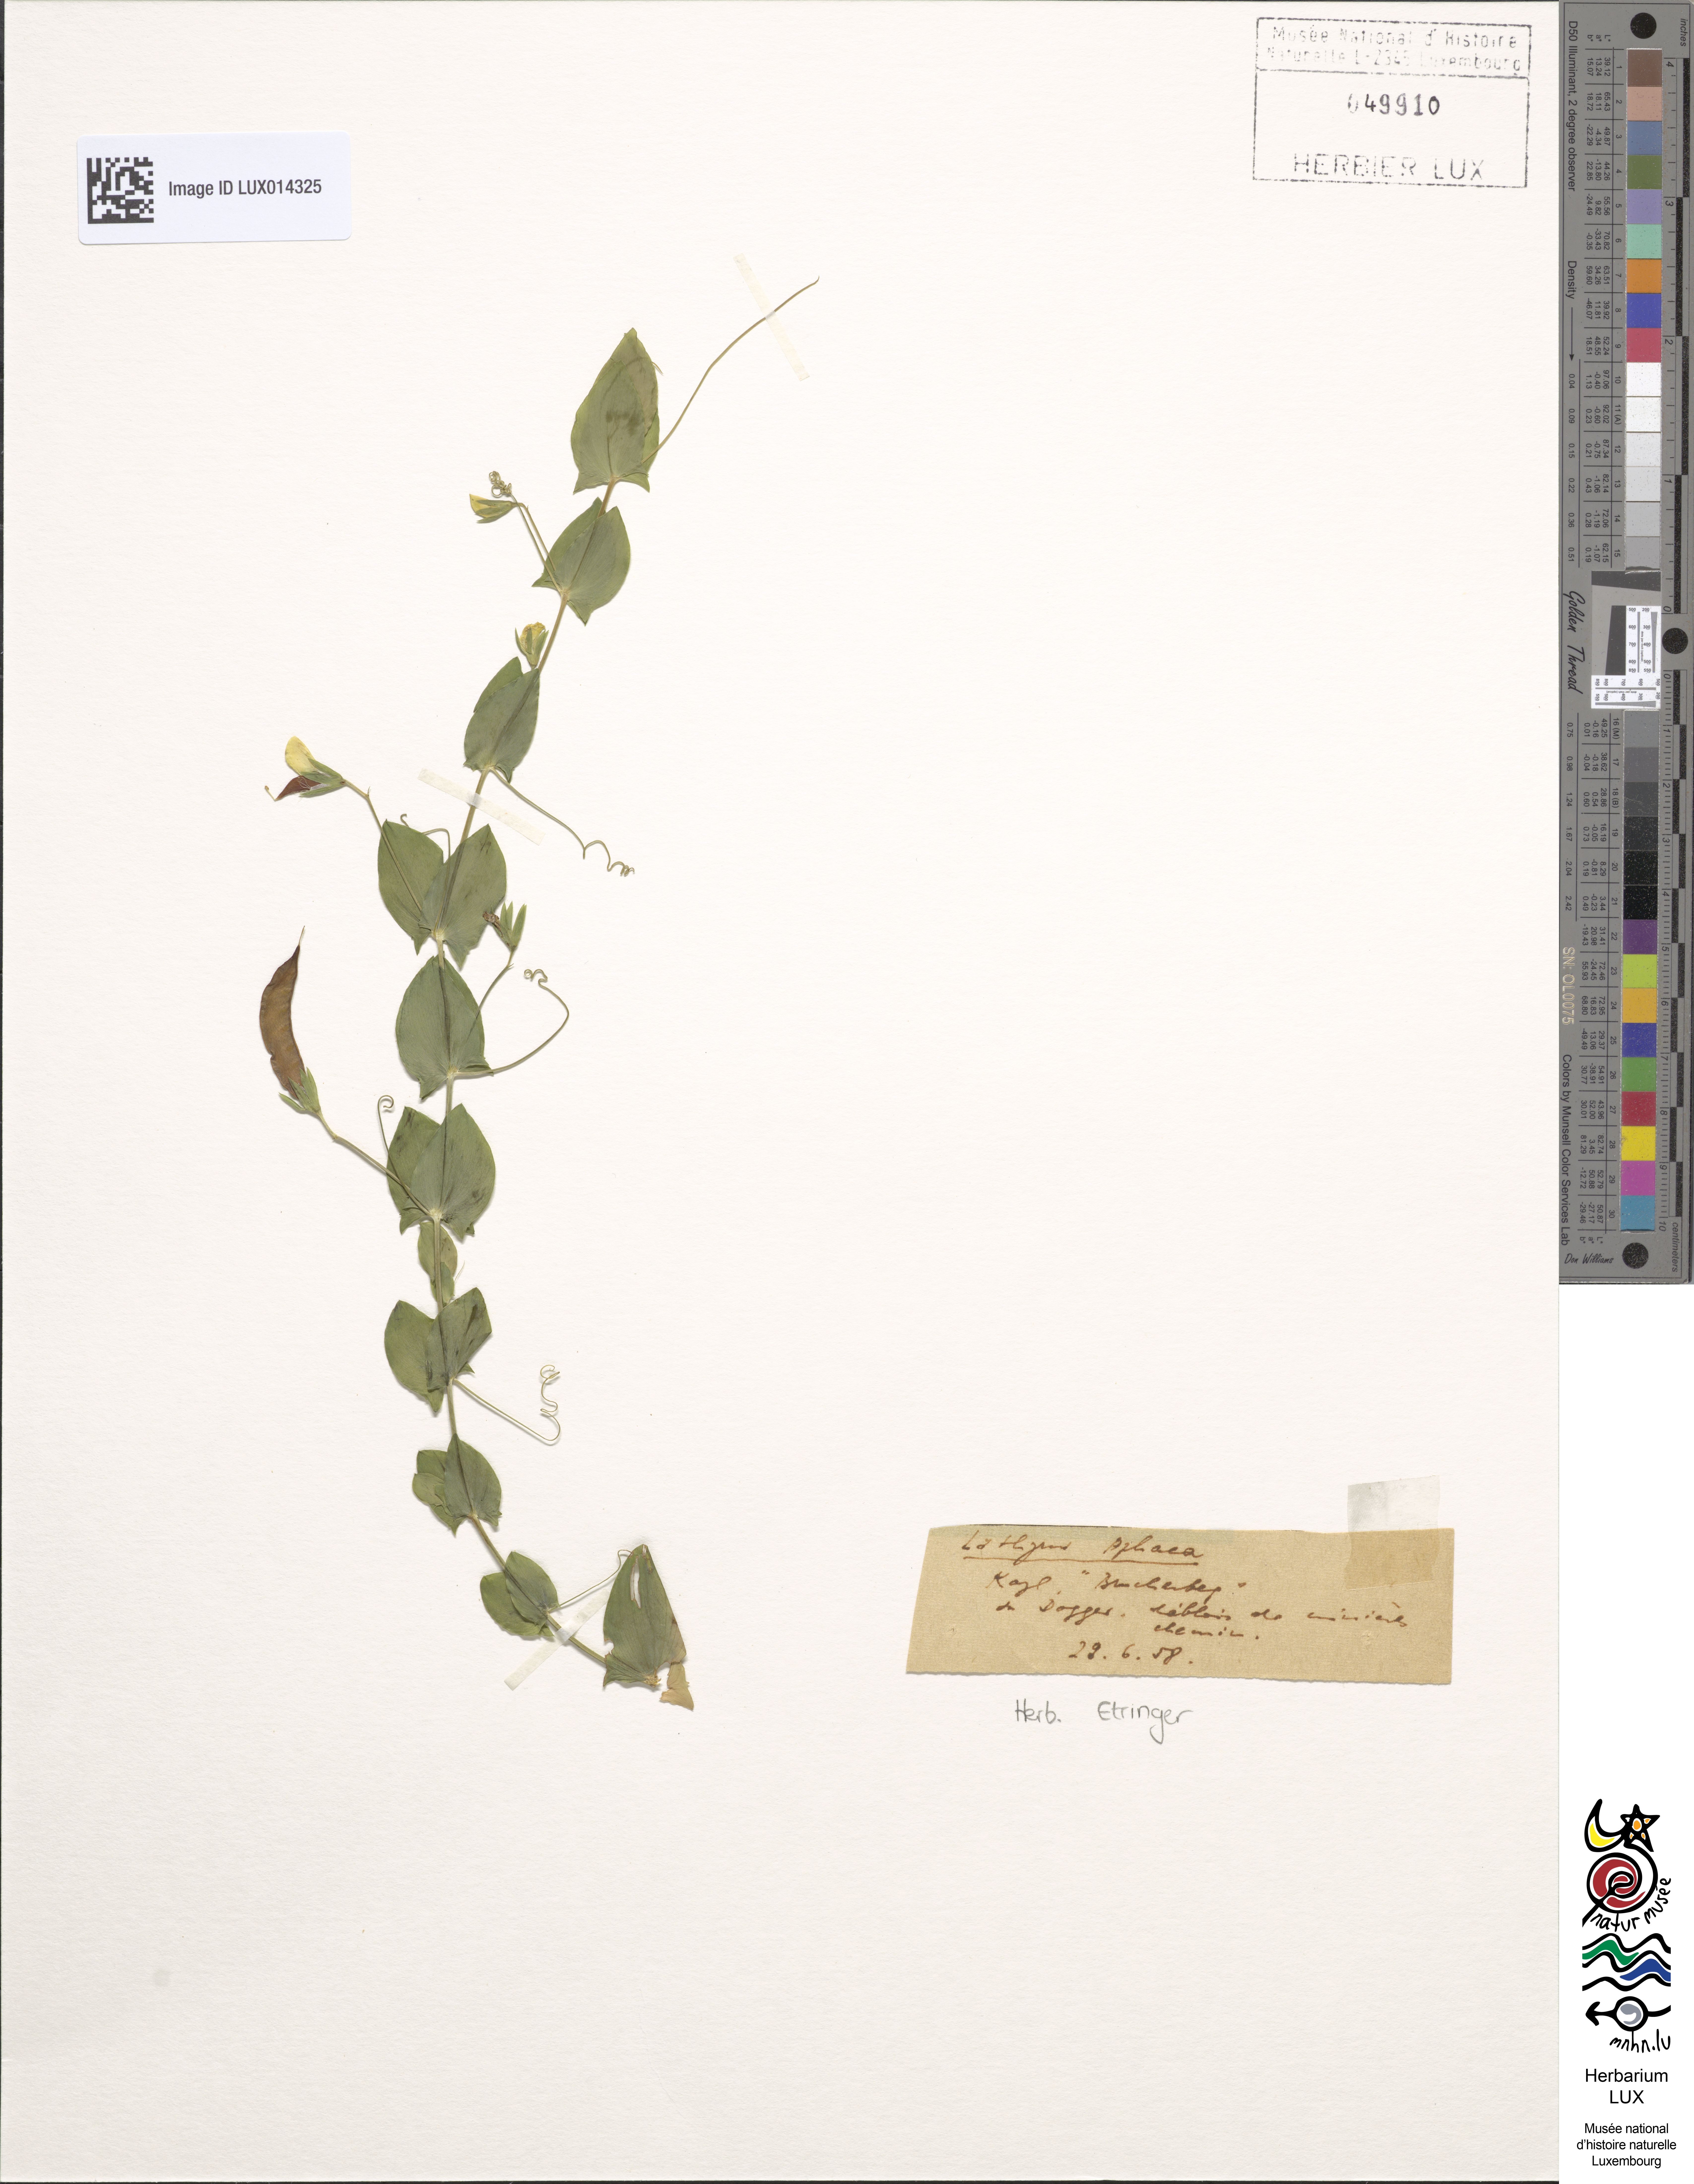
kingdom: Plantae
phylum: Tracheophyta
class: Magnoliopsida
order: Fabales
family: Fabaceae
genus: Lathyrus
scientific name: Lathyrus aphaca
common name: Yellow vetchling
